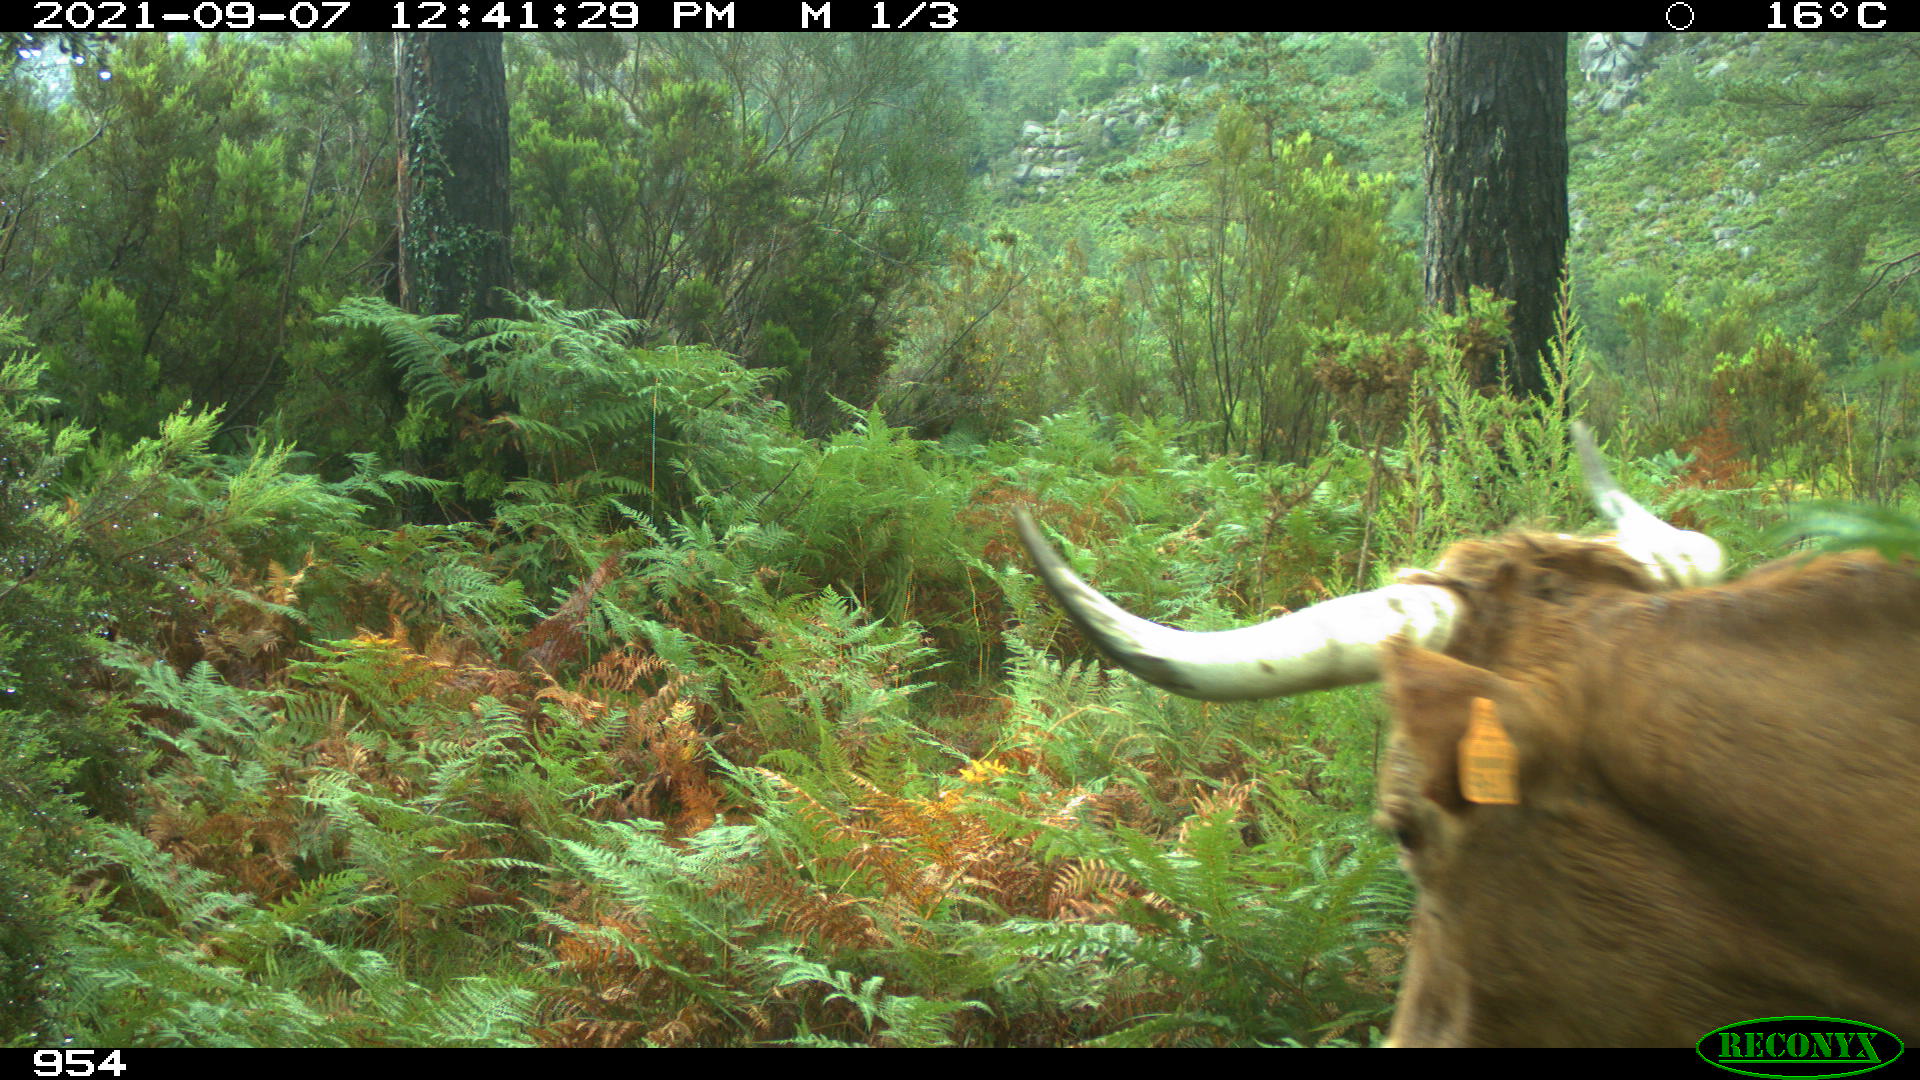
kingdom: Animalia
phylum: Chordata
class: Mammalia
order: Artiodactyla
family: Bovidae
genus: Bos
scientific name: Bos taurus
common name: Domesticated cattle
